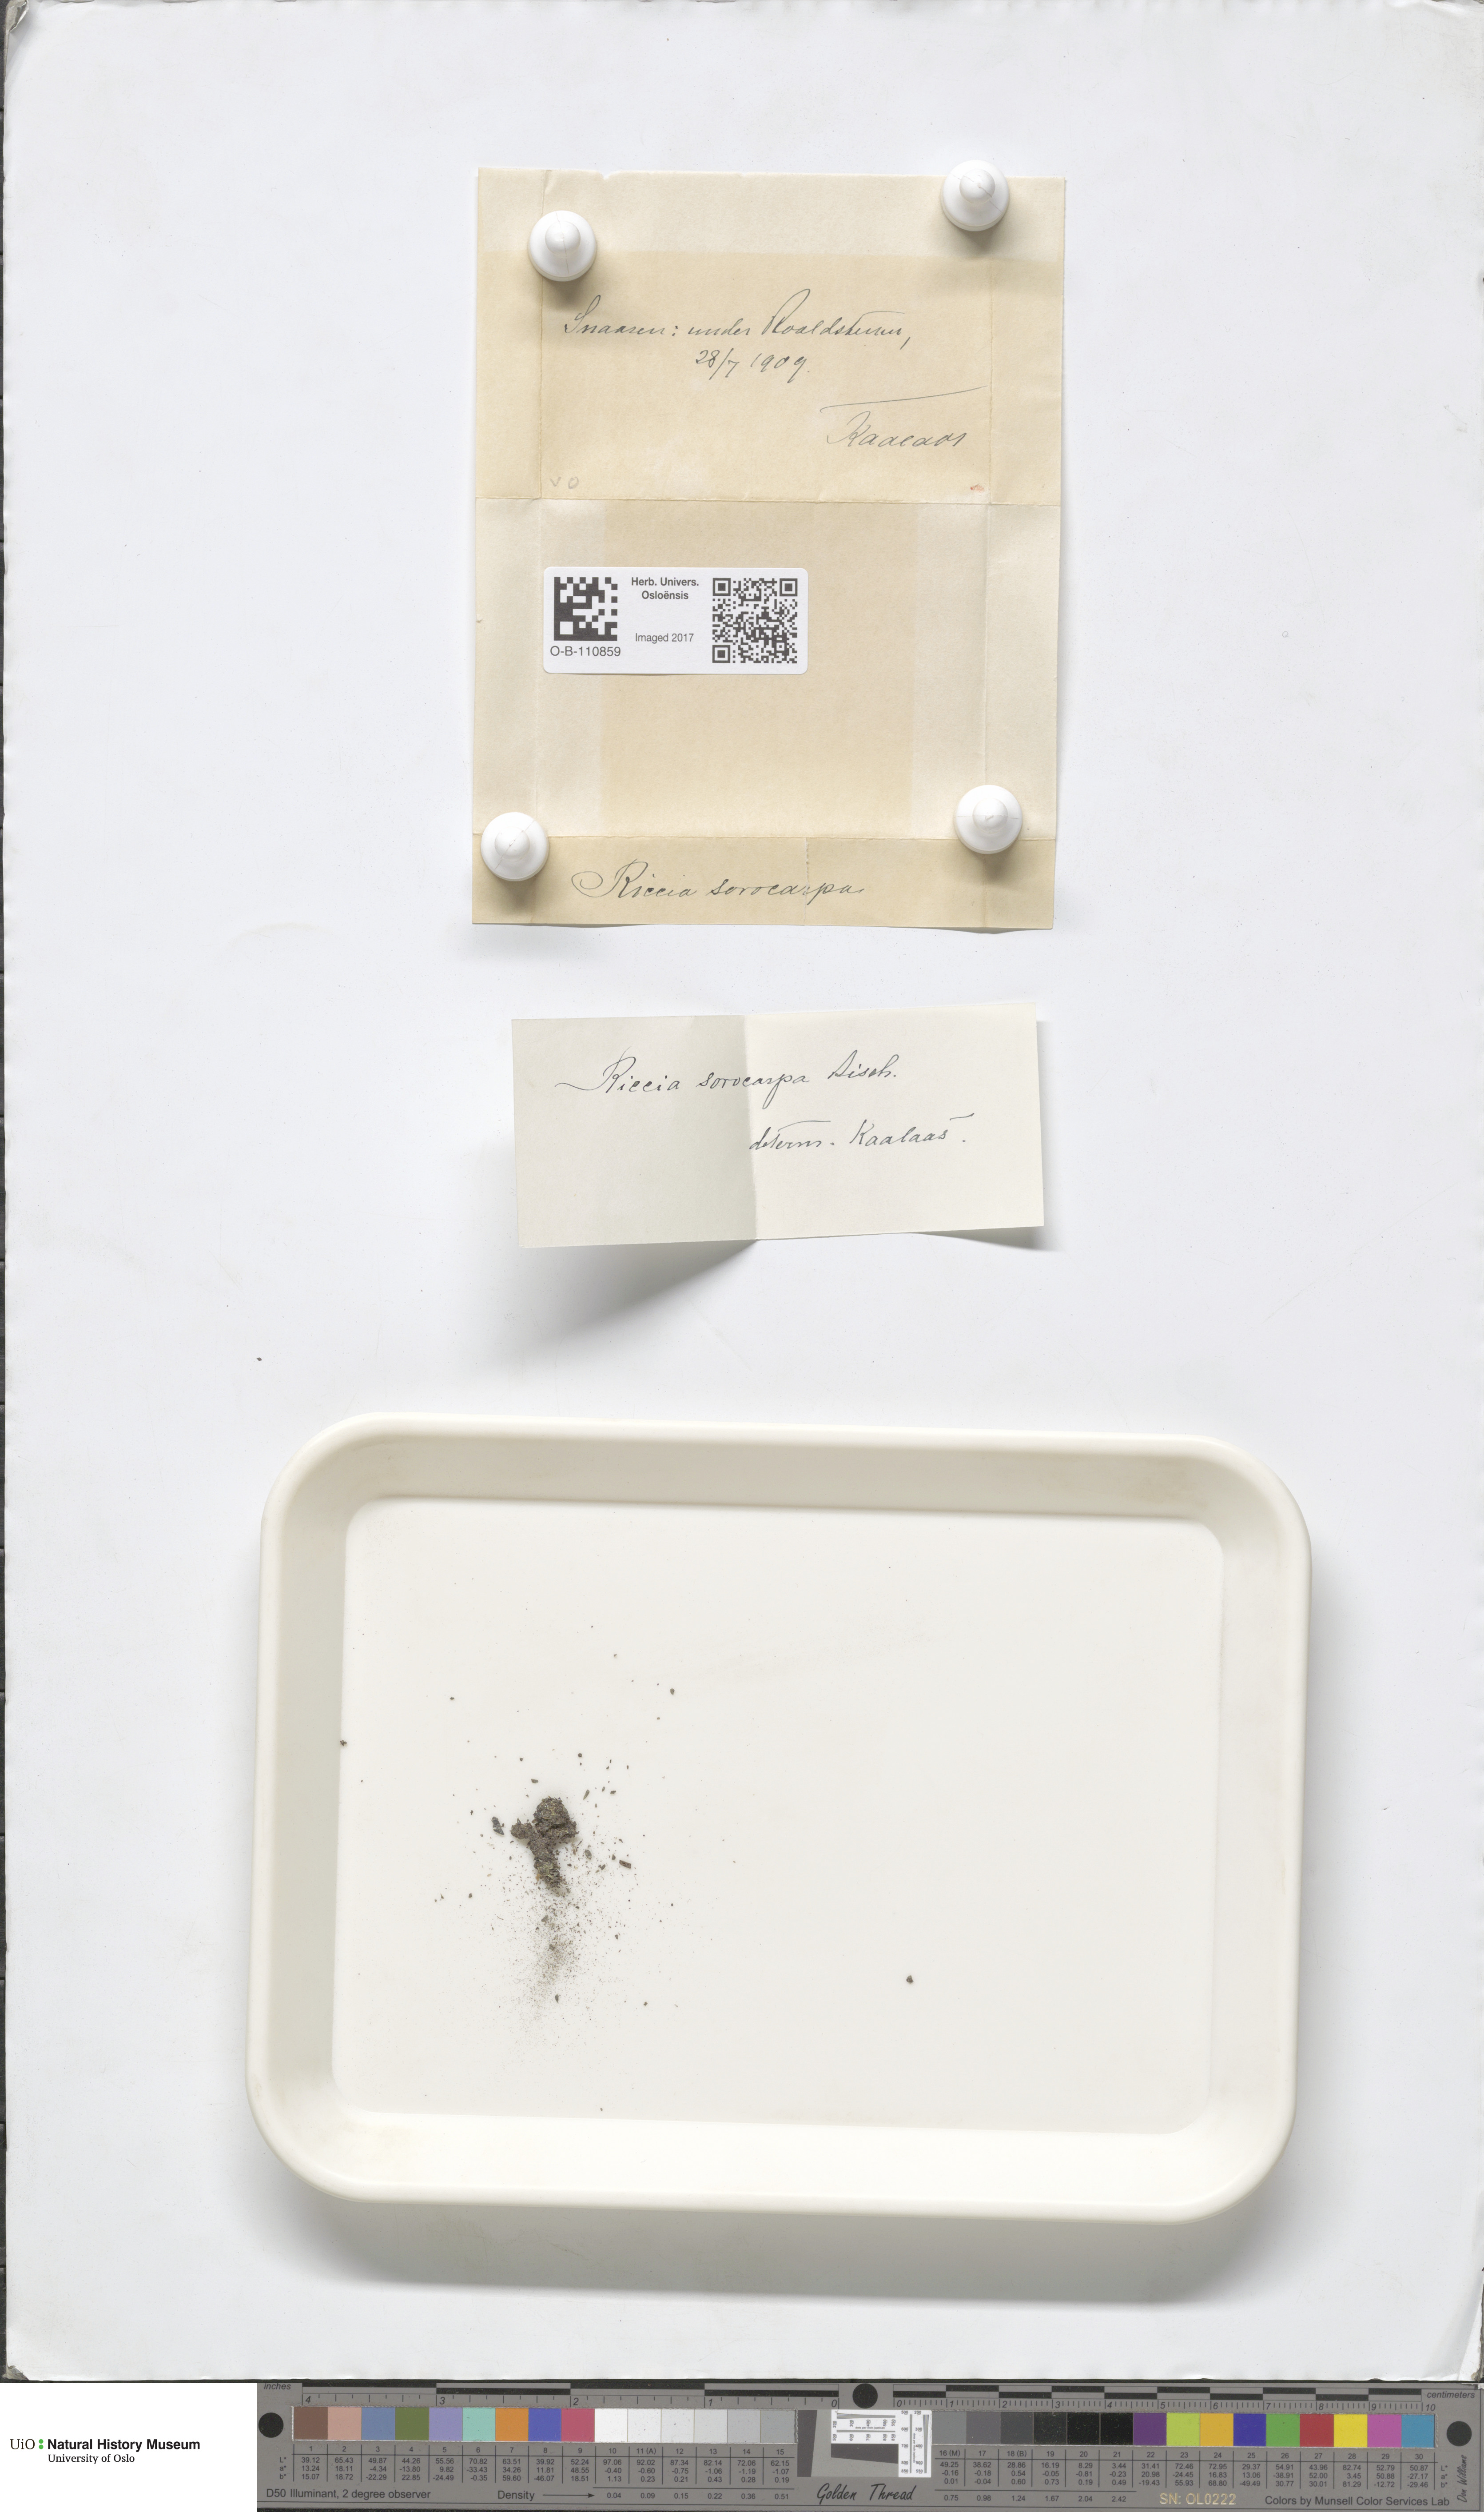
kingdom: Plantae
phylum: Marchantiophyta
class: Marchantiopsida
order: Marchantiales
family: Ricciaceae
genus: Riccia
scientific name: Riccia sorocarpa
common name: Common crystalwort
